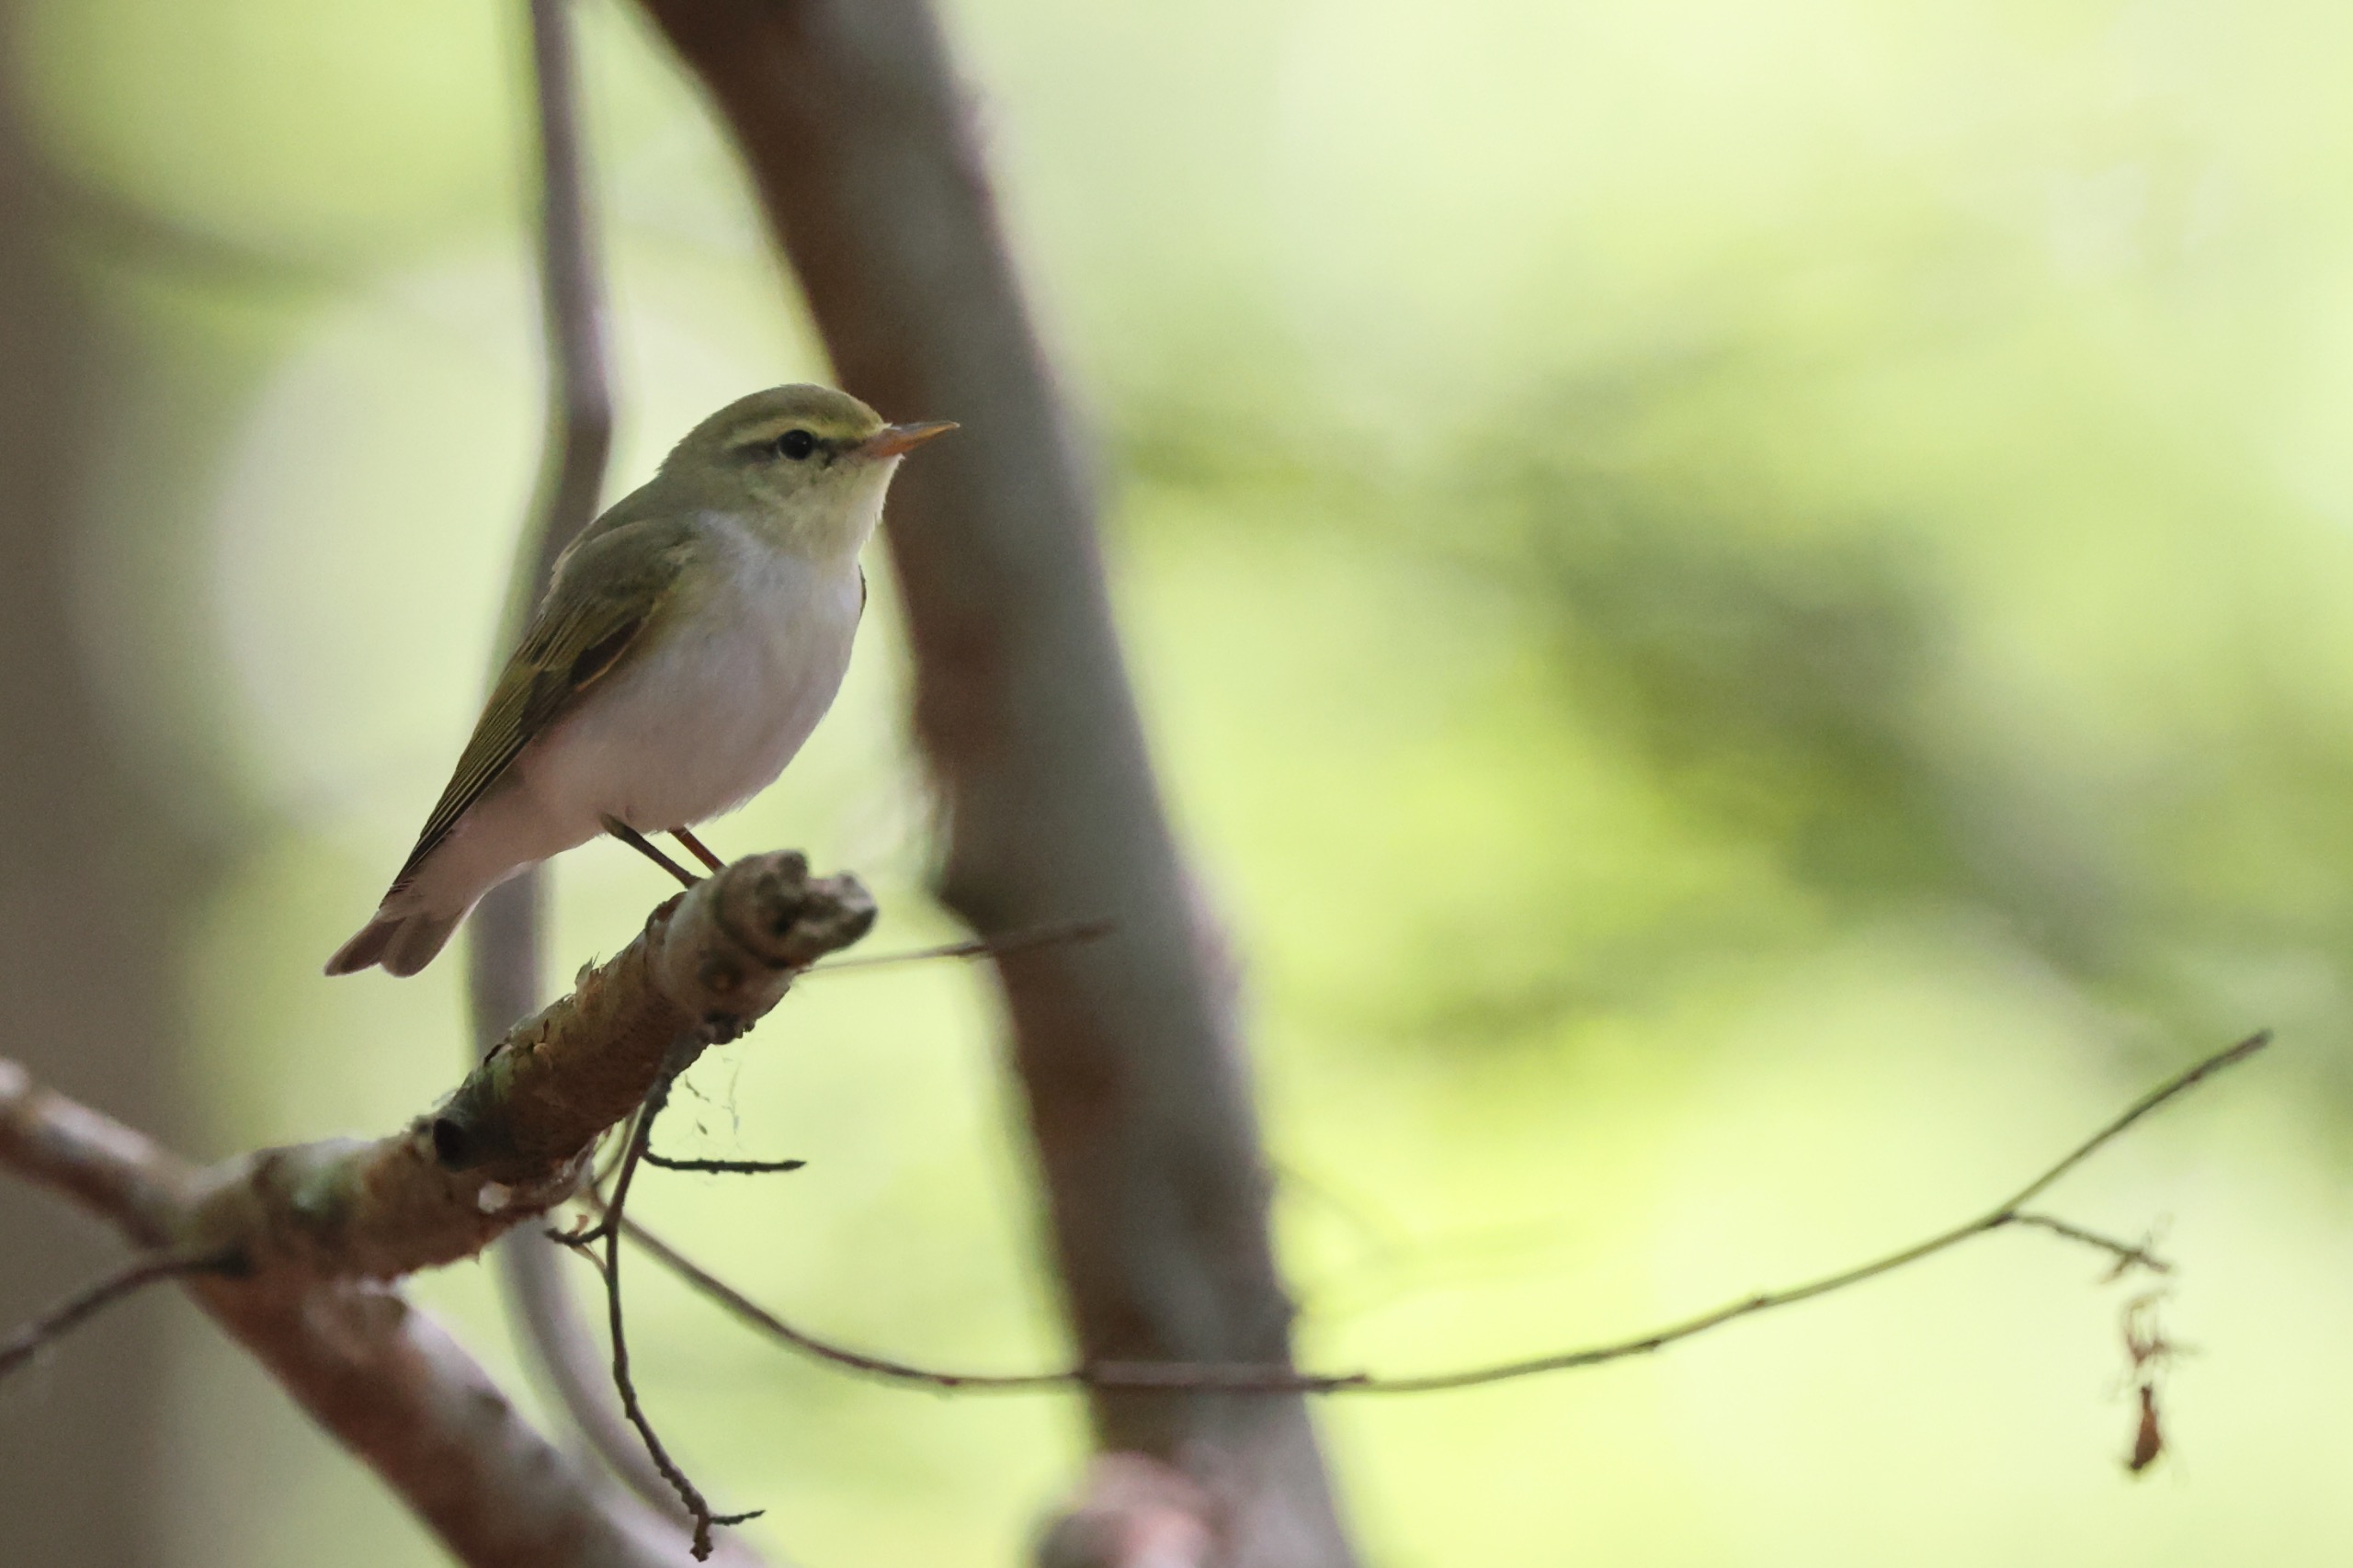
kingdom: Animalia
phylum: Chordata
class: Aves
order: Passeriformes
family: Phylloscopidae
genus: Phylloscopus
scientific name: Phylloscopus sibillatrix
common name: Skovsanger
